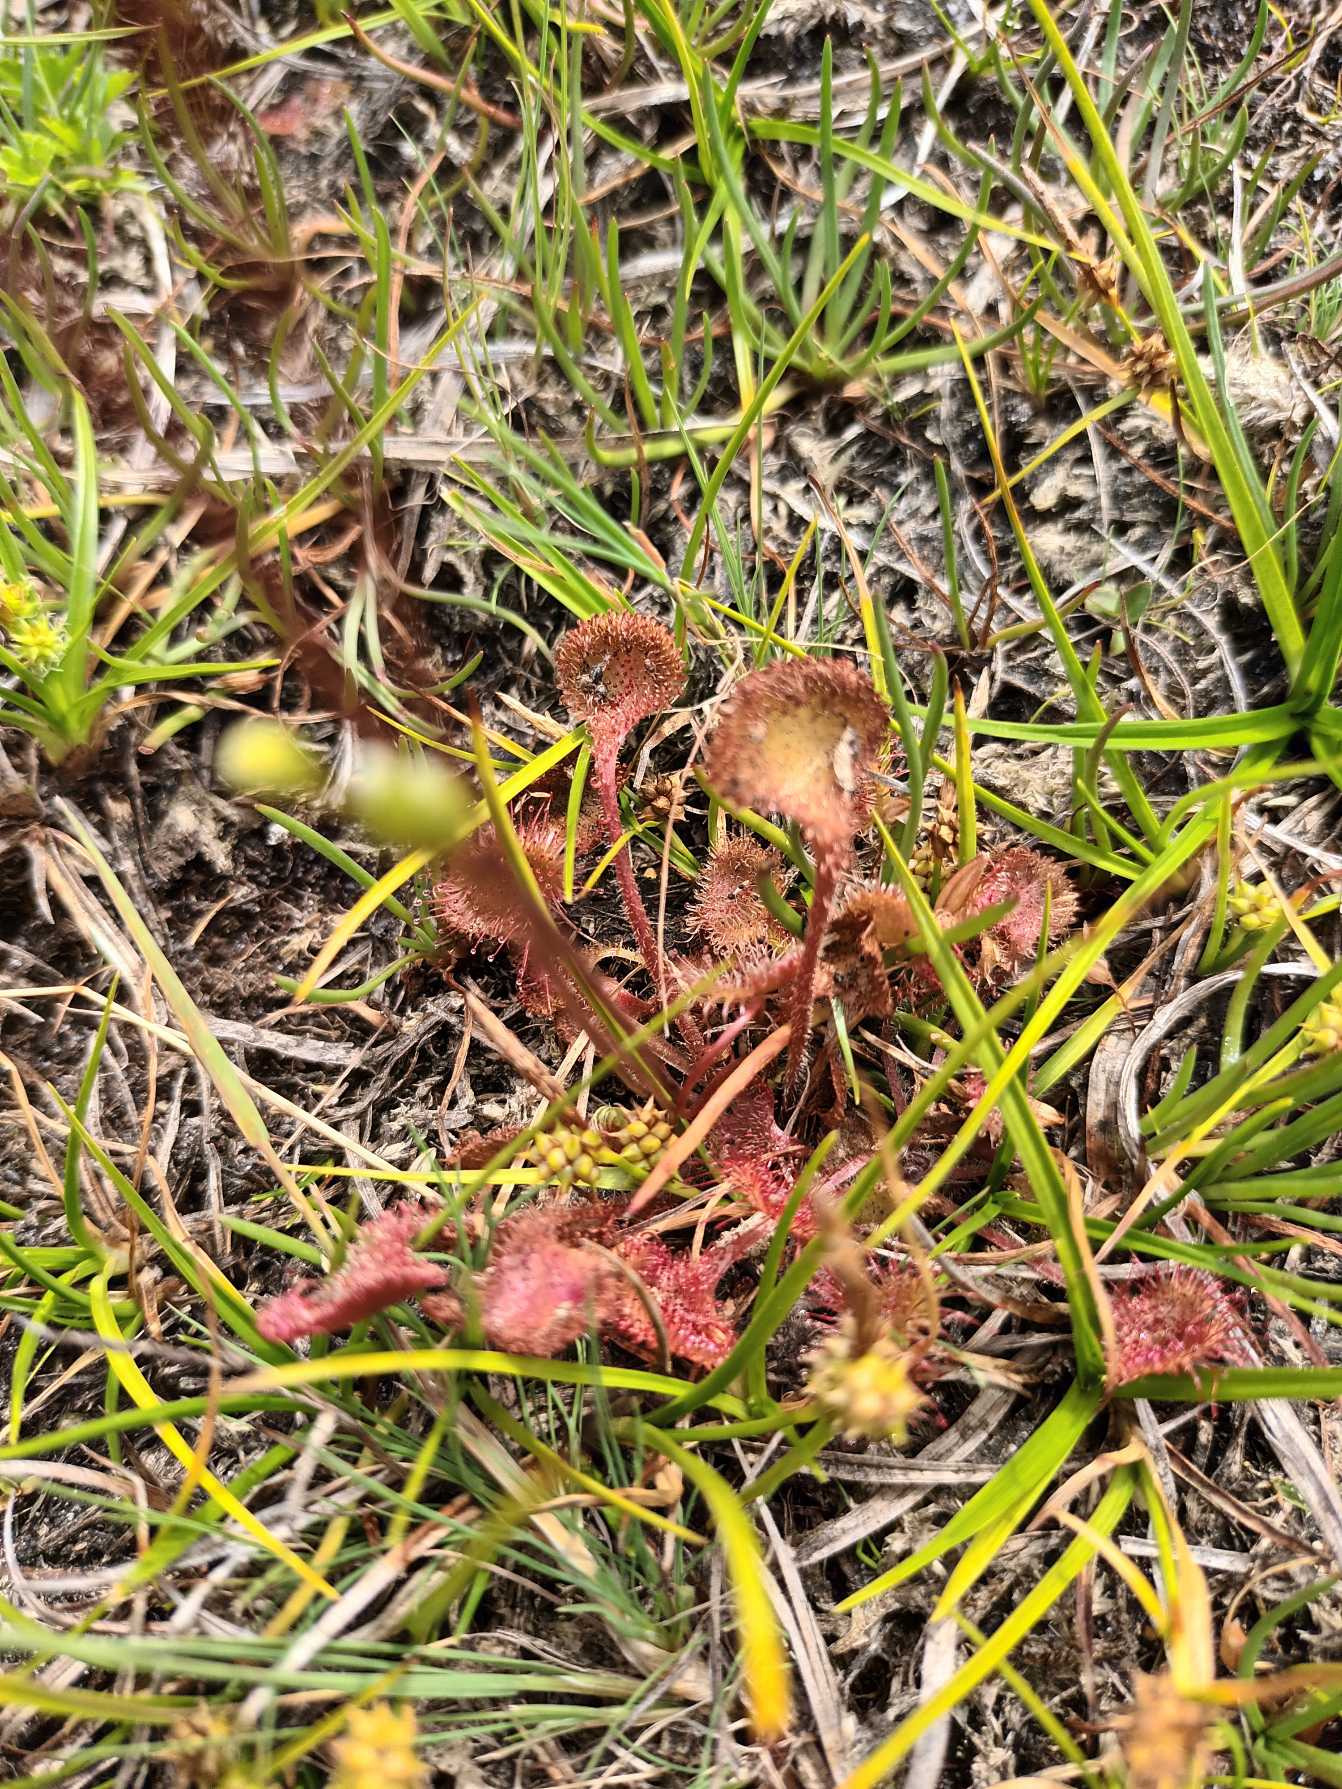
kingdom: Plantae
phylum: Tracheophyta
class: Magnoliopsida
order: Caryophyllales
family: Droseraceae
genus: Drosera
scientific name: Drosera rotundifolia
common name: Rundbladet soldug
